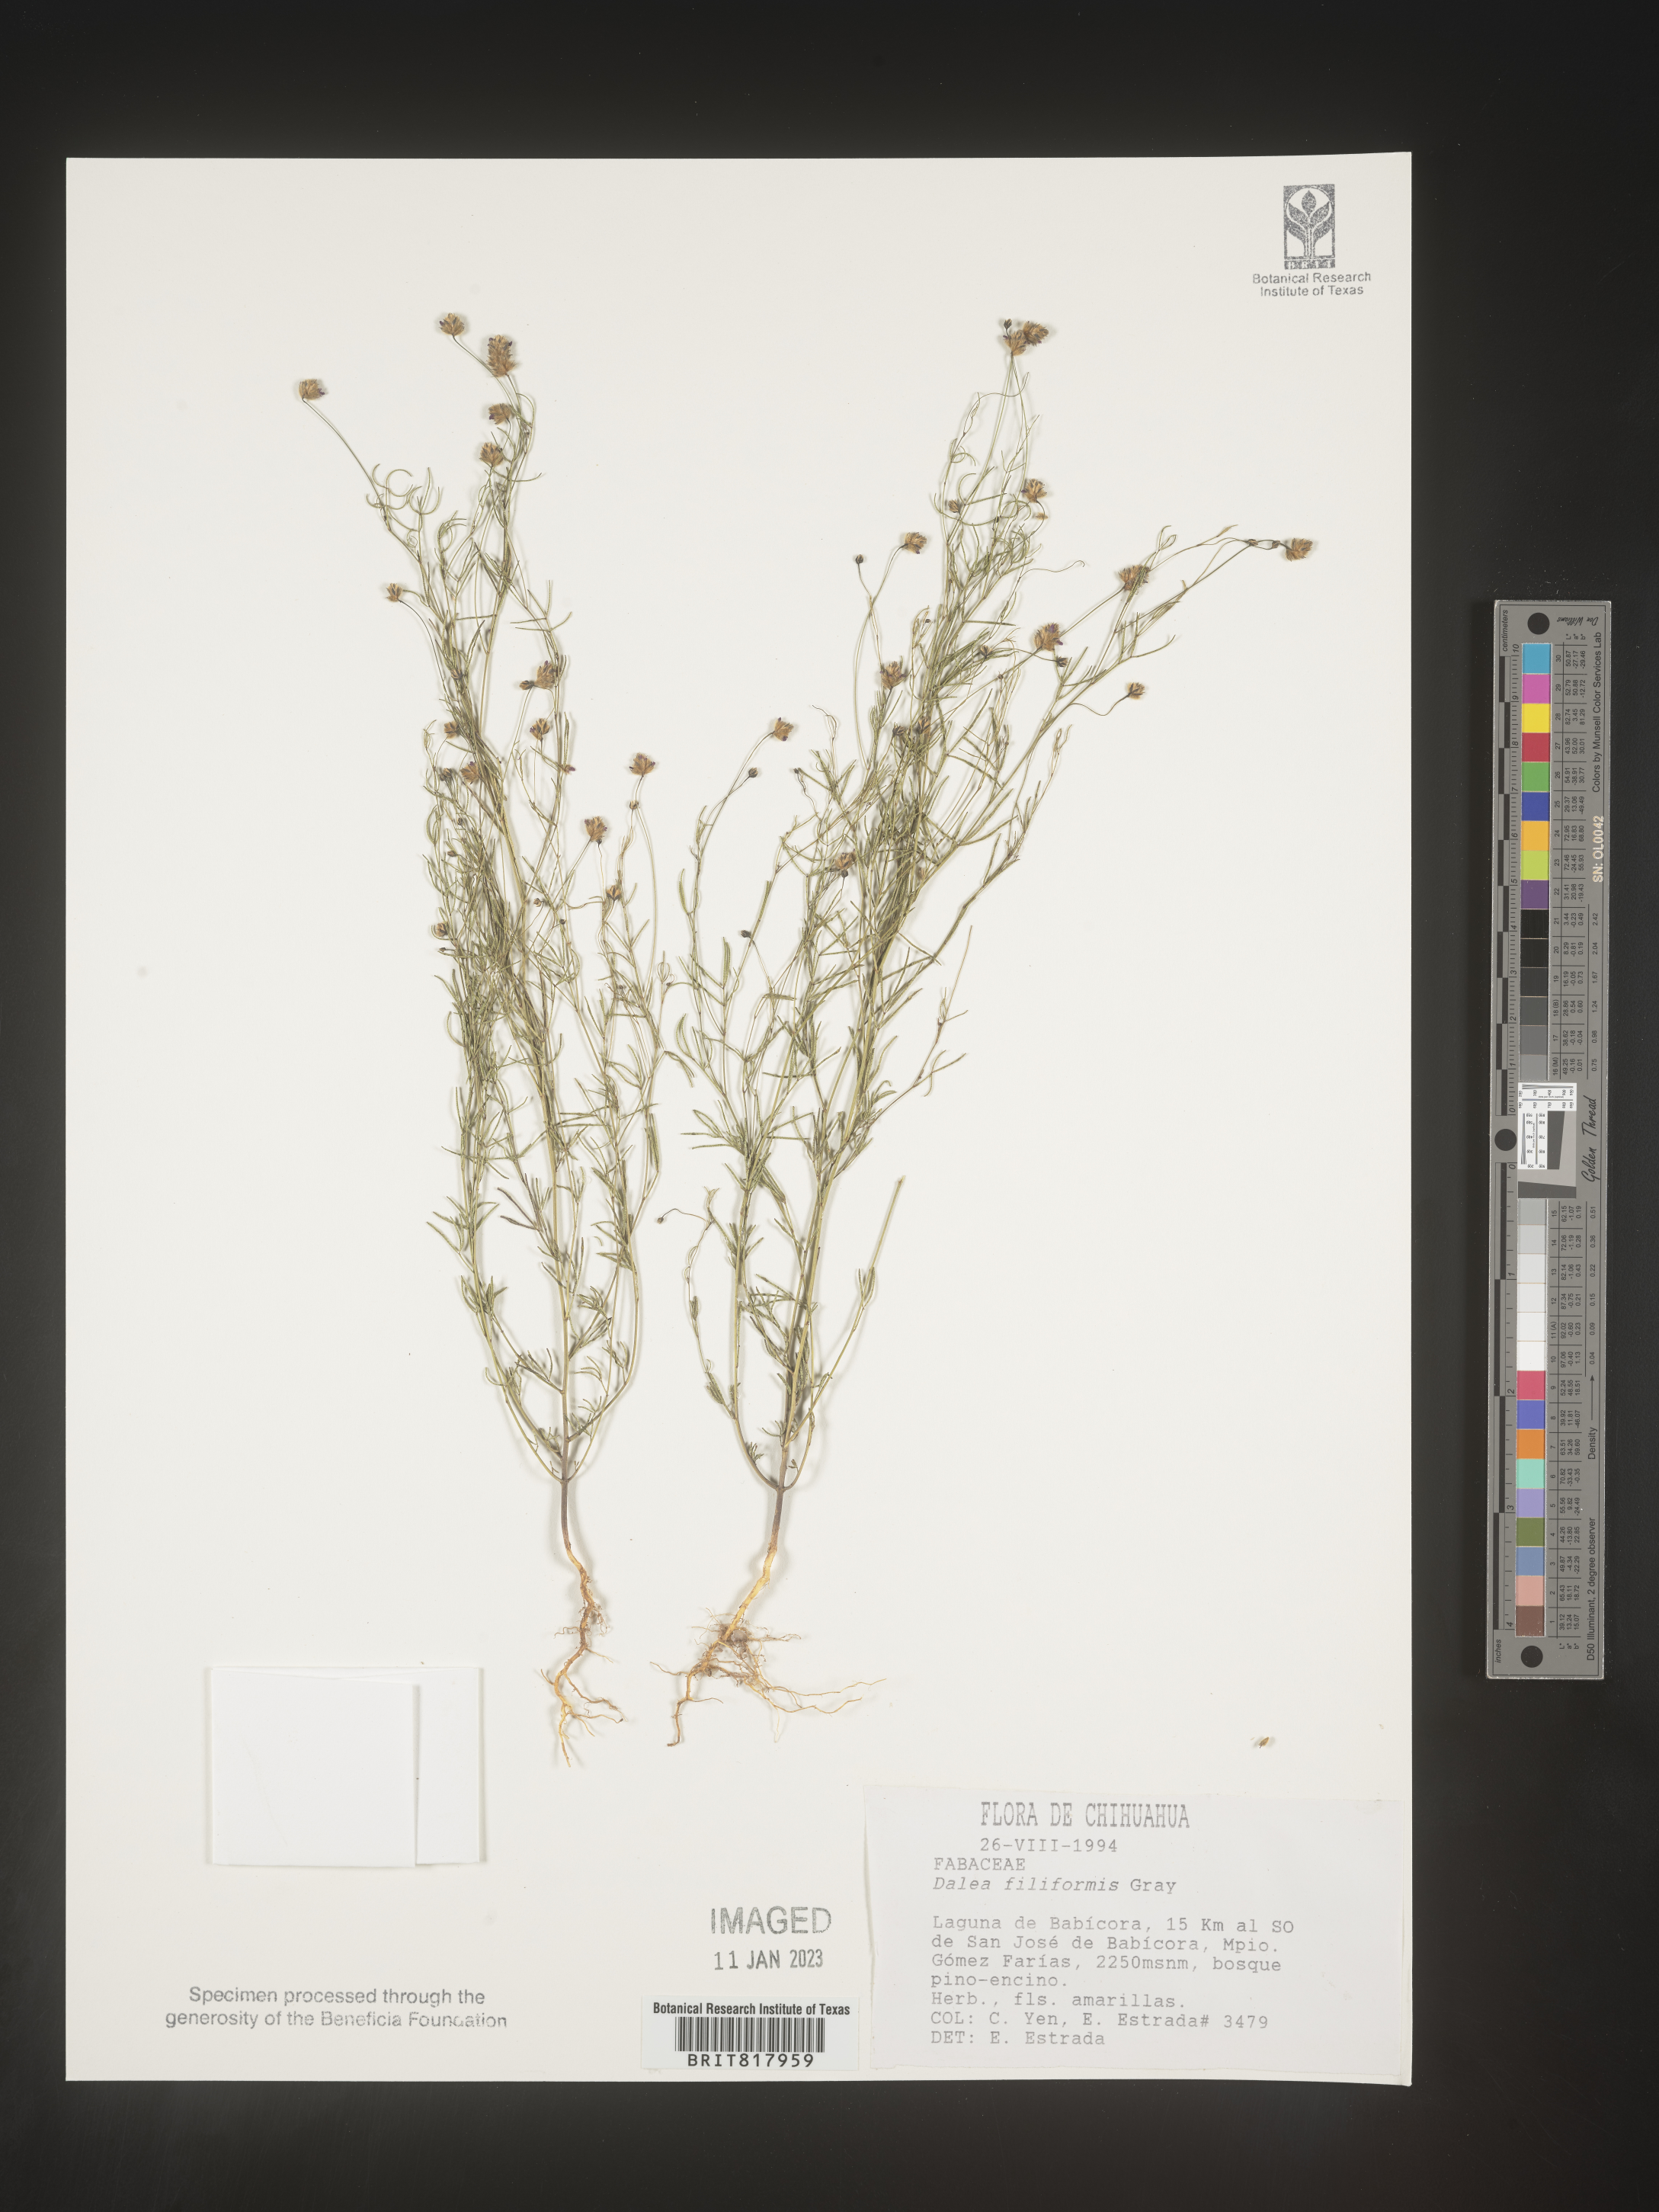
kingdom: Plantae
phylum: Tracheophyta
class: Magnoliopsida
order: Fabales
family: Fabaceae
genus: Dalea
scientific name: Dalea
